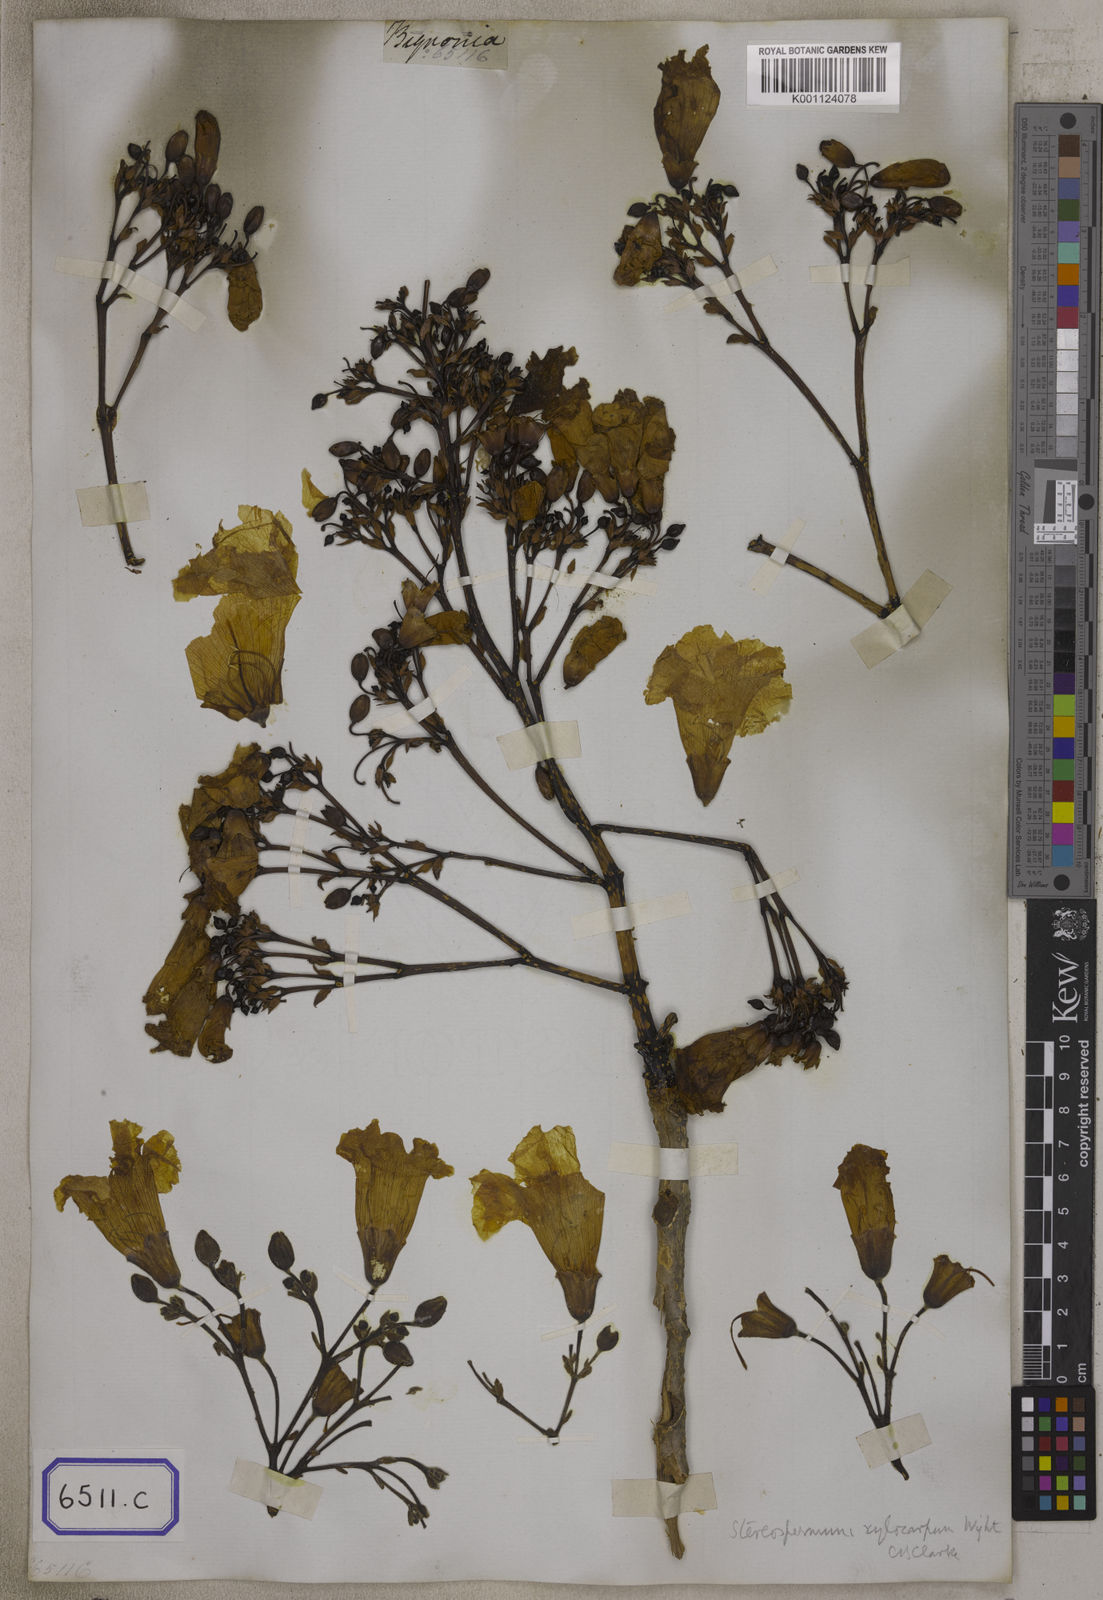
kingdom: Plantae
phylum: Tracheophyta
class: Magnoliopsida
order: Lamiales
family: Bignoniaceae
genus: Radermachera
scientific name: Radermachera xylocarpa
